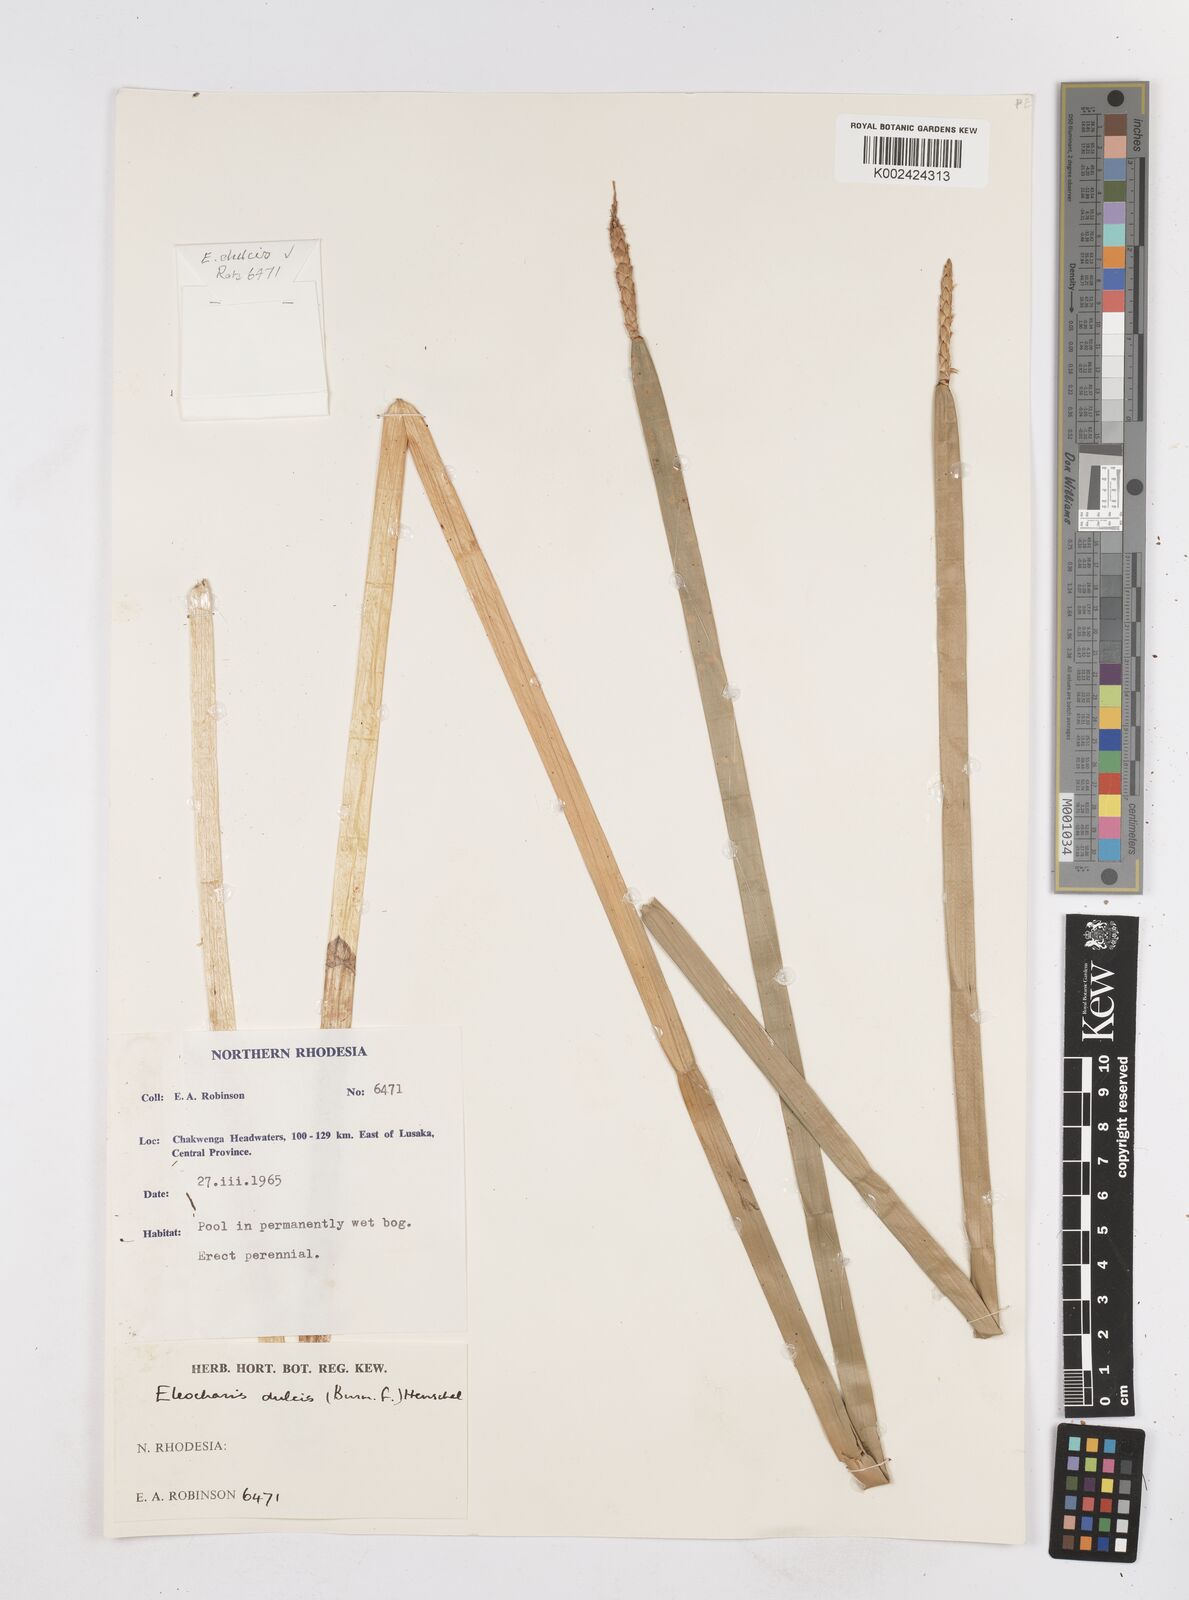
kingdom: Plantae
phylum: Tracheophyta
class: Liliopsida
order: Poales
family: Cyperaceae
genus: Eleocharis
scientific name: Eleocharis dulcis
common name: Chinese water chestnut
